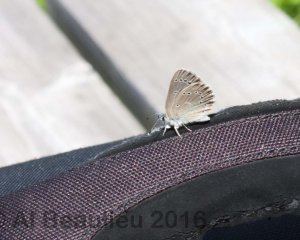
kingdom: Animalia
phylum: Arthropoda
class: Insecta
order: Lepidoptera
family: Lycaenidae
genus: Glaucopsyche
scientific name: Glaucopsyche lygdamus
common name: Silvery Blue
